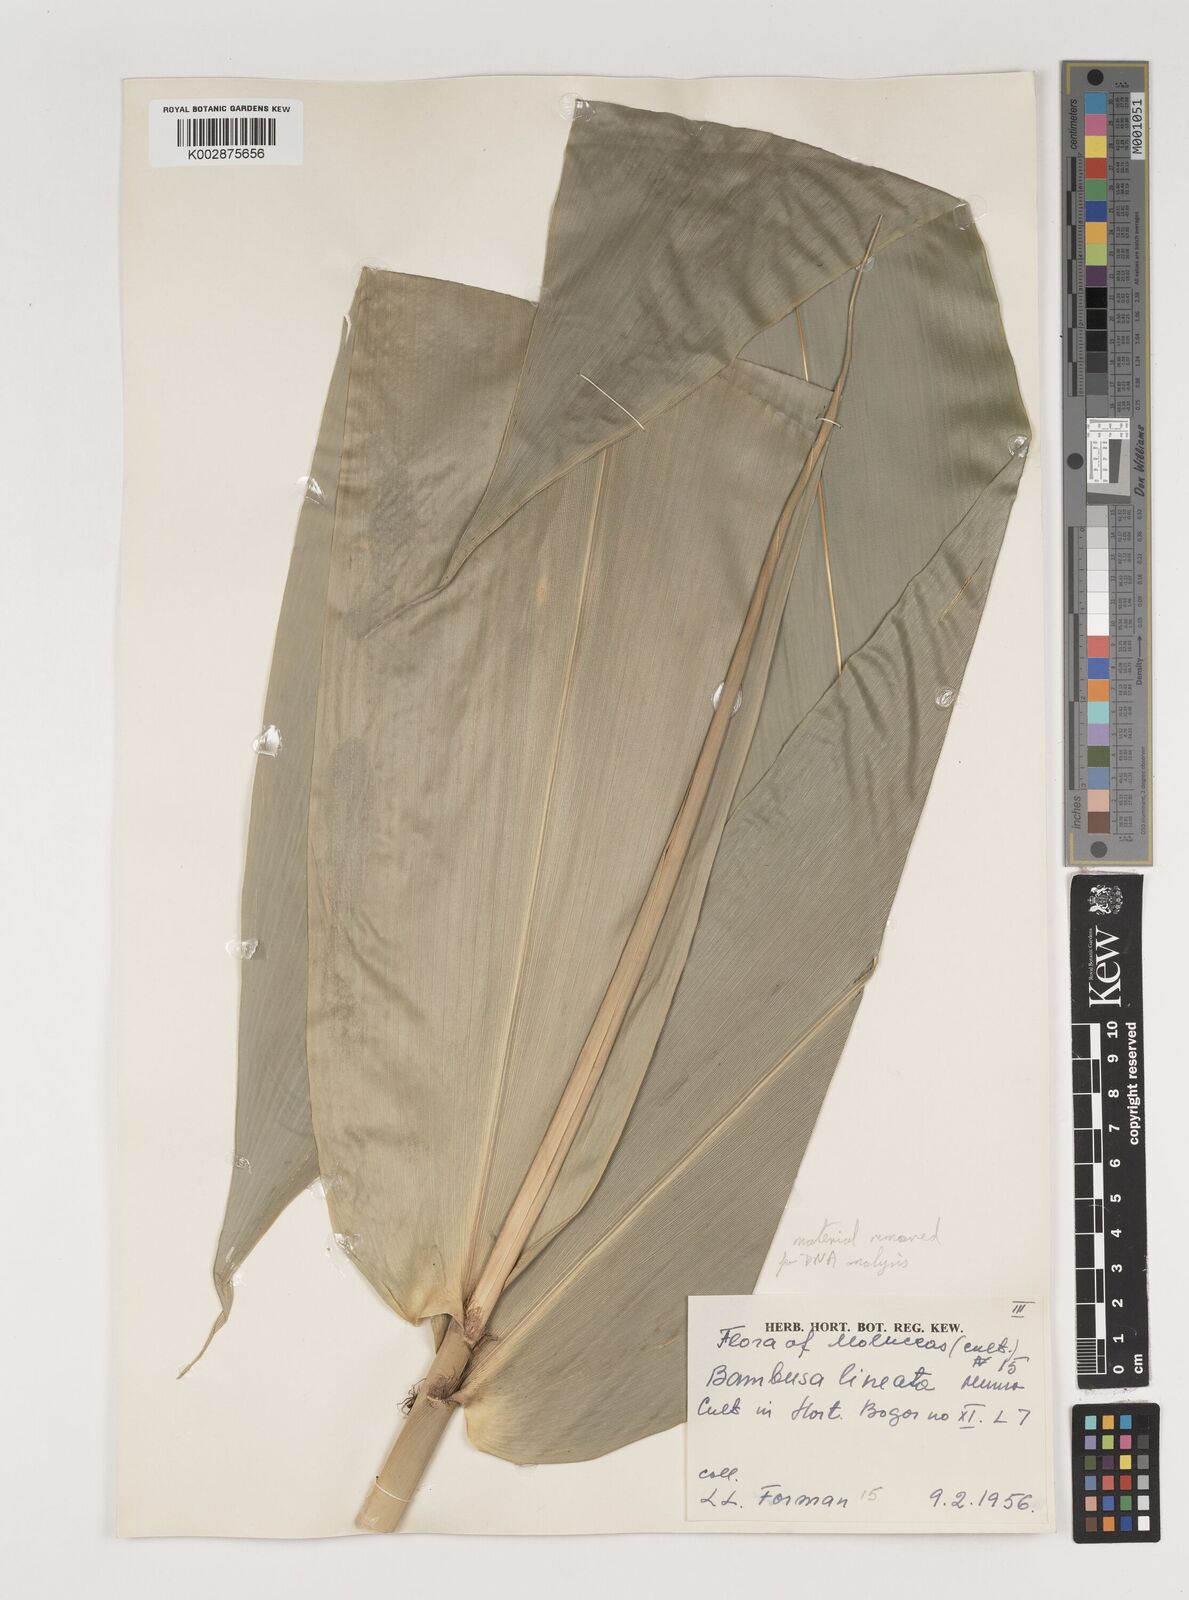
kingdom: Plantae
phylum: Tracheophyta
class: Liliopsida
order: Poales
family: Poaceae
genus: Neololeba
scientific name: Neololeba atra
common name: Cape bamboo
